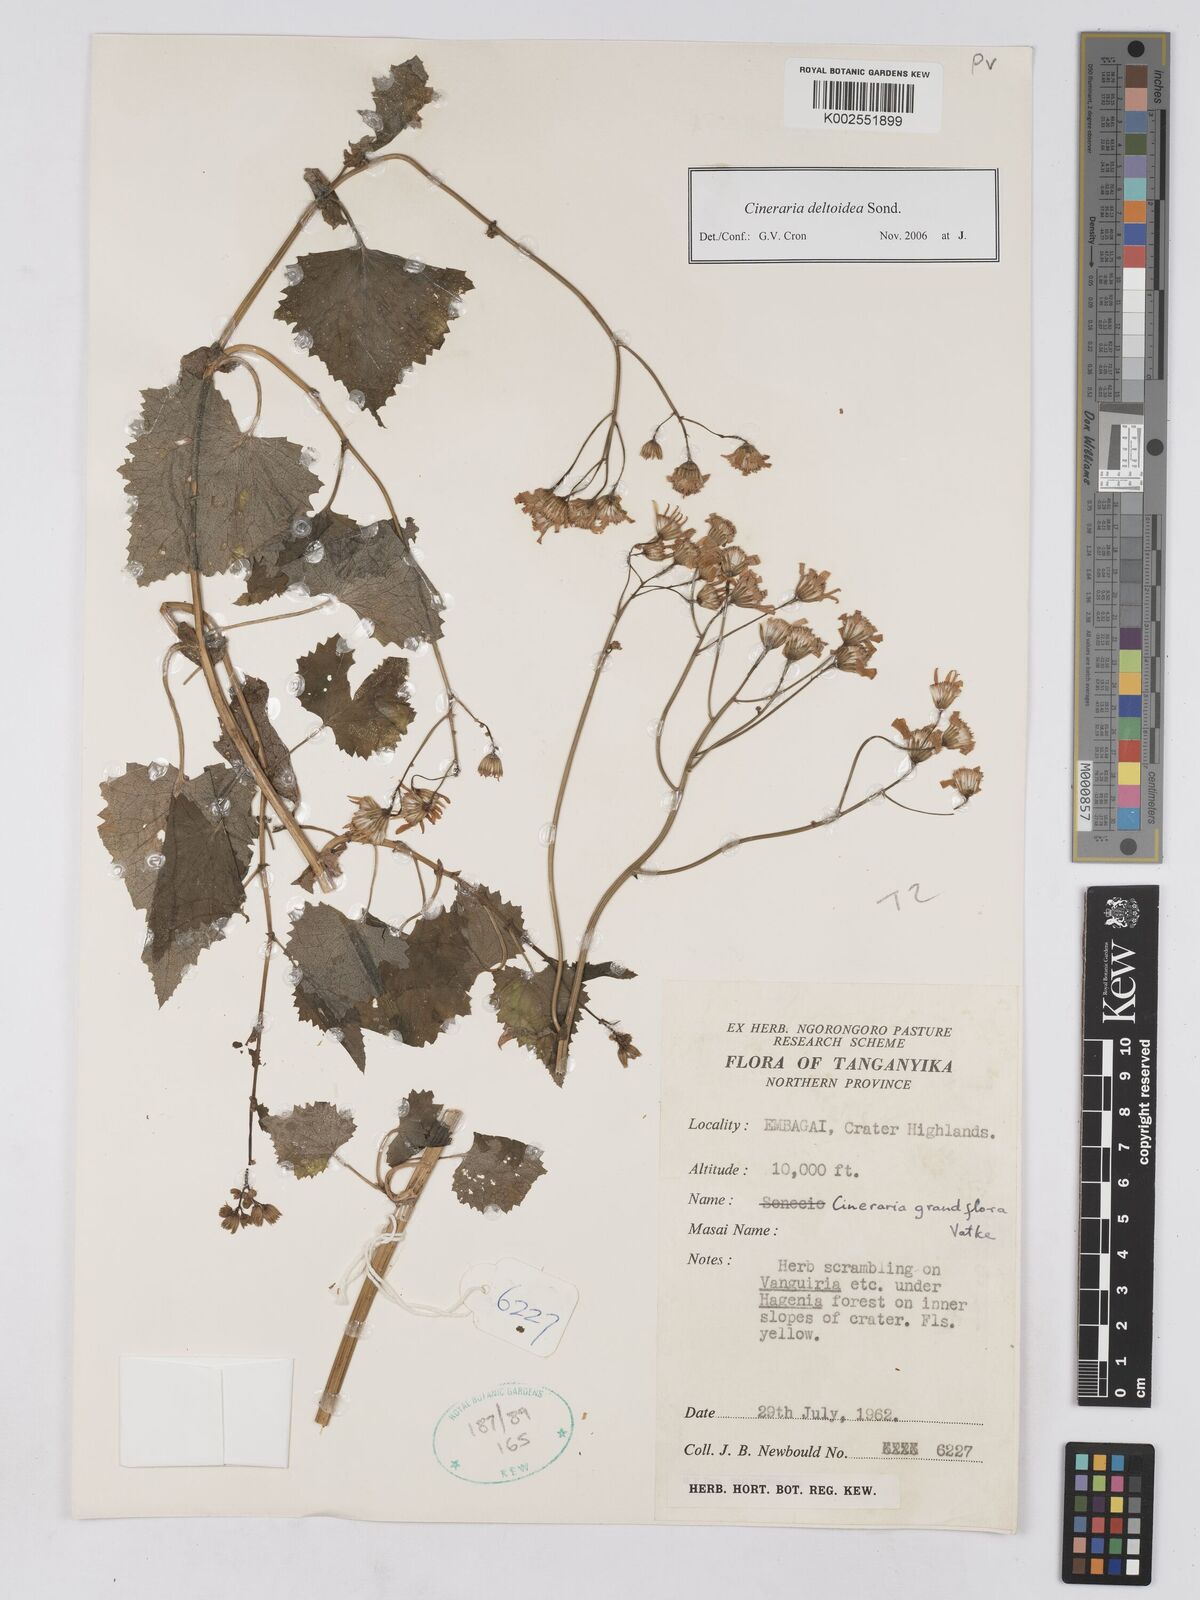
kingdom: Plantae
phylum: Tracheophyta
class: Magnoliopsida
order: Asterales
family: Asteraceae
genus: Cineraria
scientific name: Cineraria deltoidea
